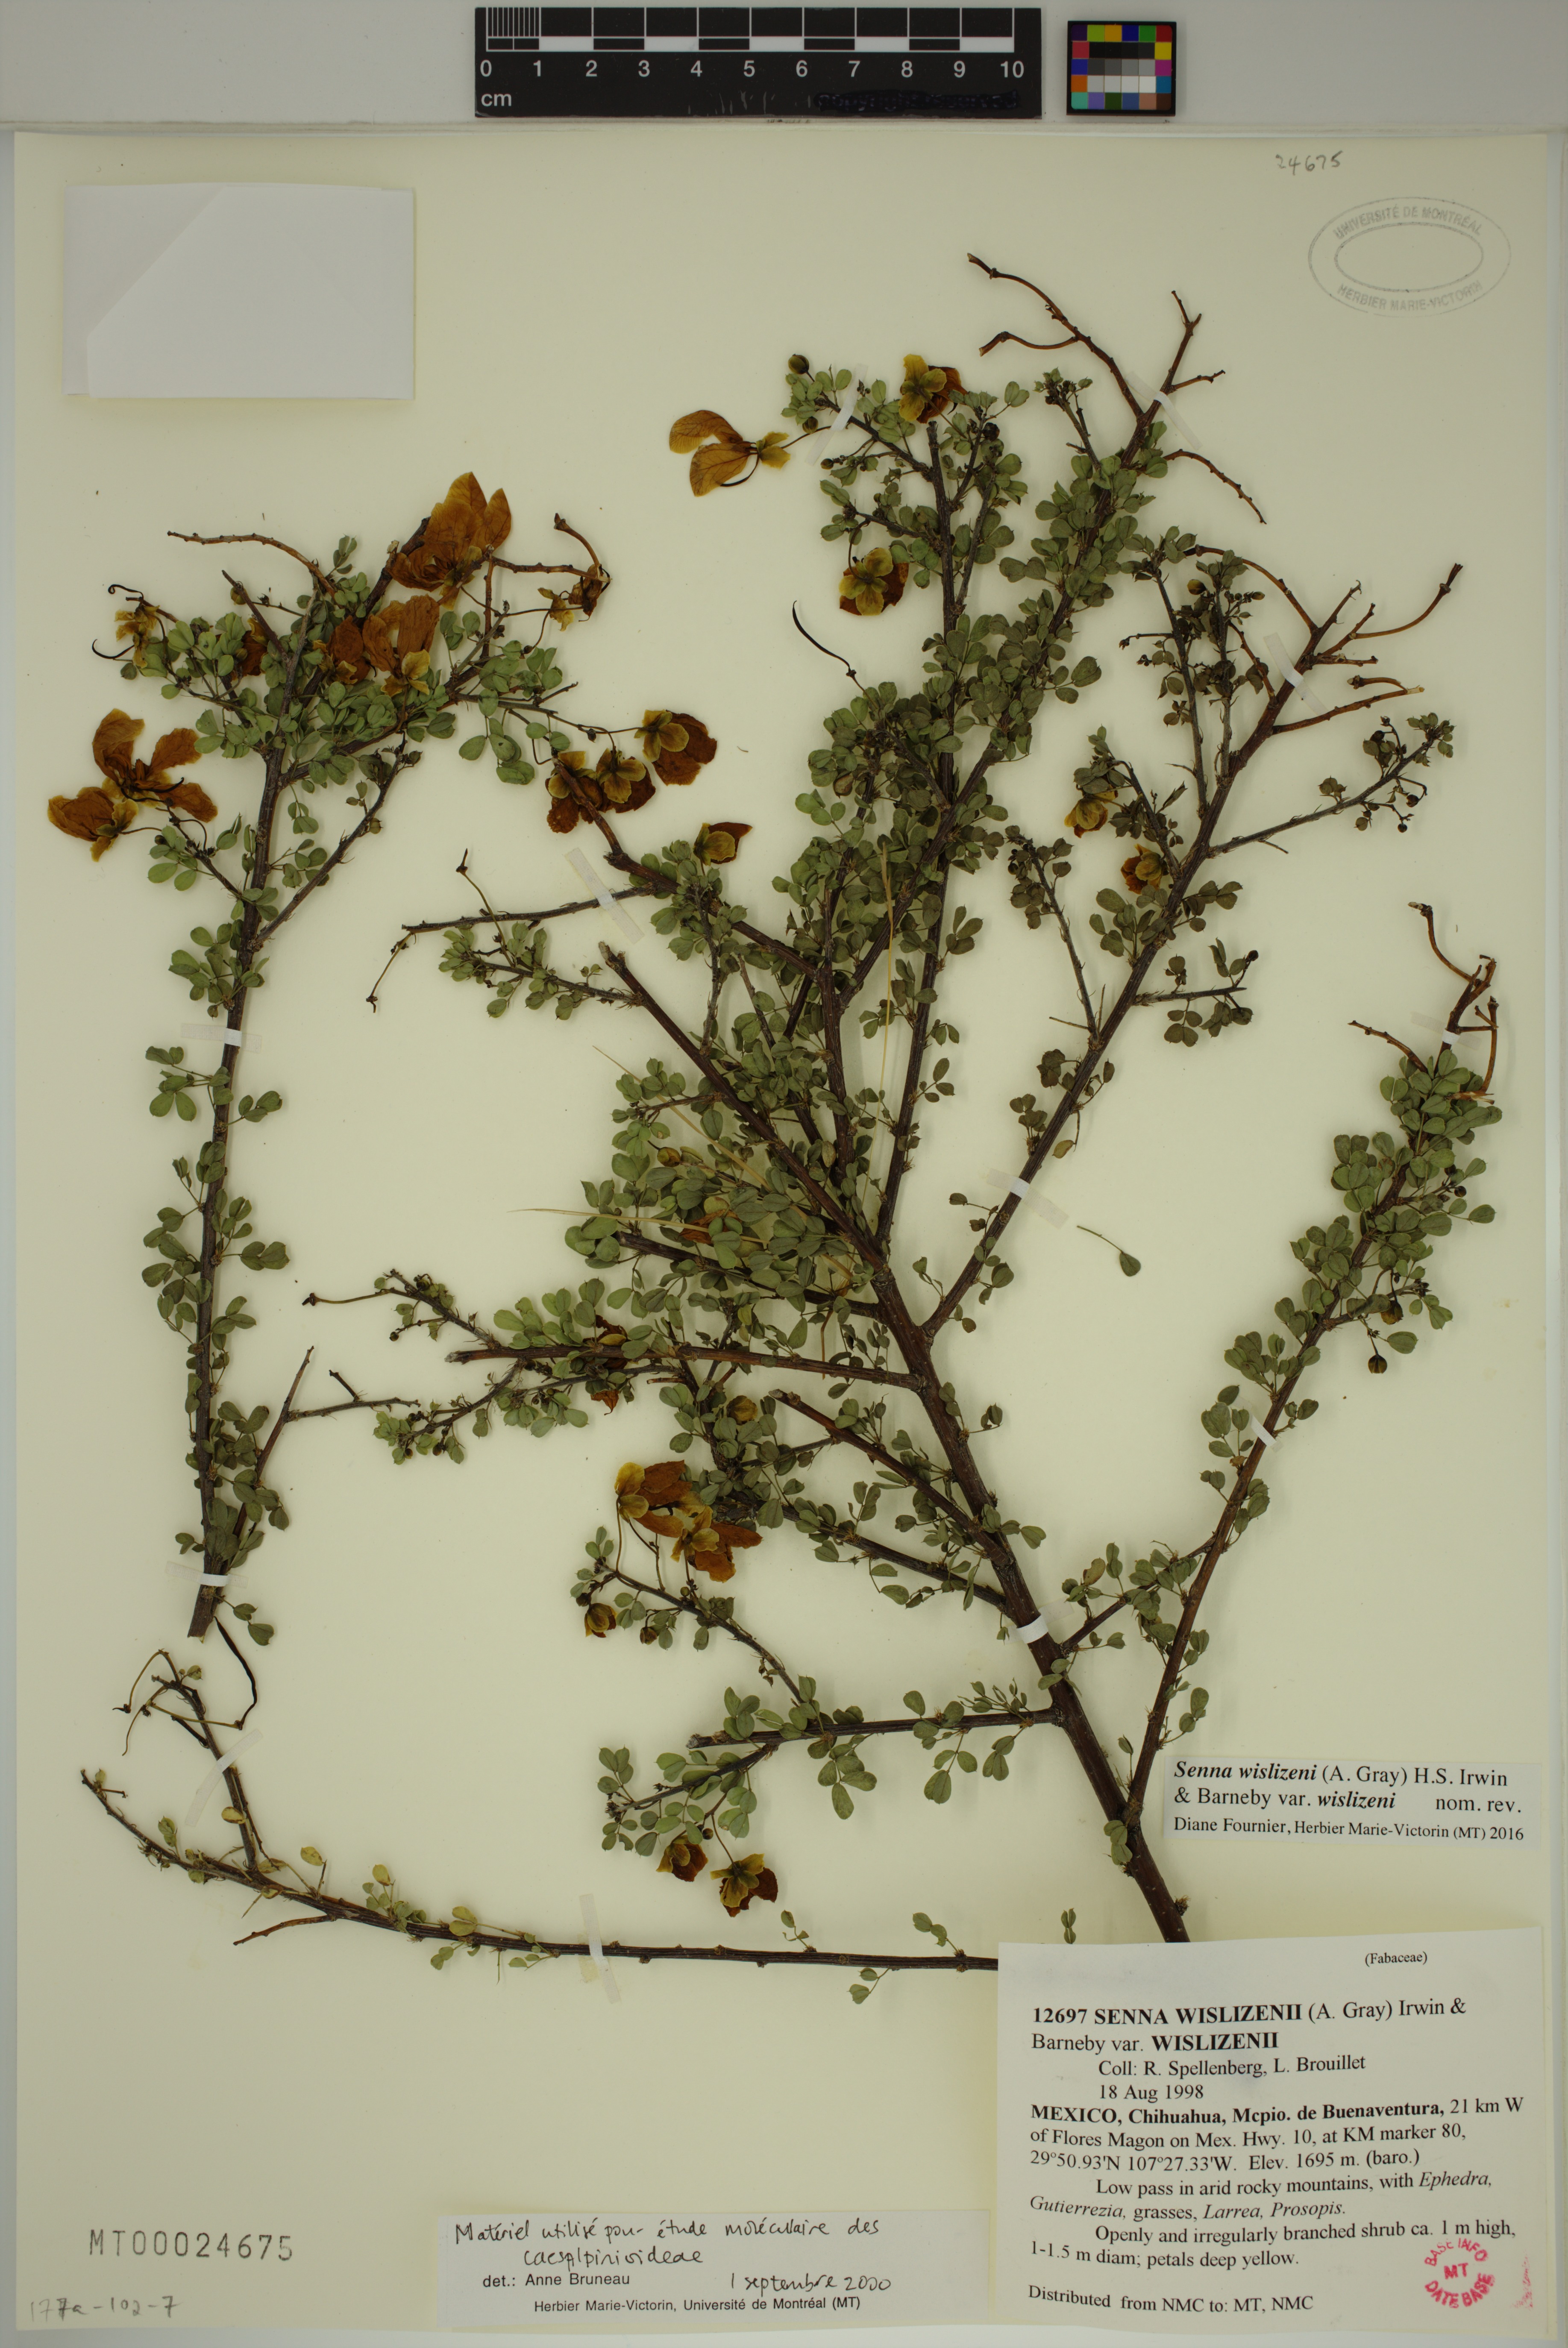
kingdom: Plantae
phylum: Tracheophyta
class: Magnoliopsida
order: Fabales
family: Fabaceae
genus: Senna
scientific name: Senna wislizeni
